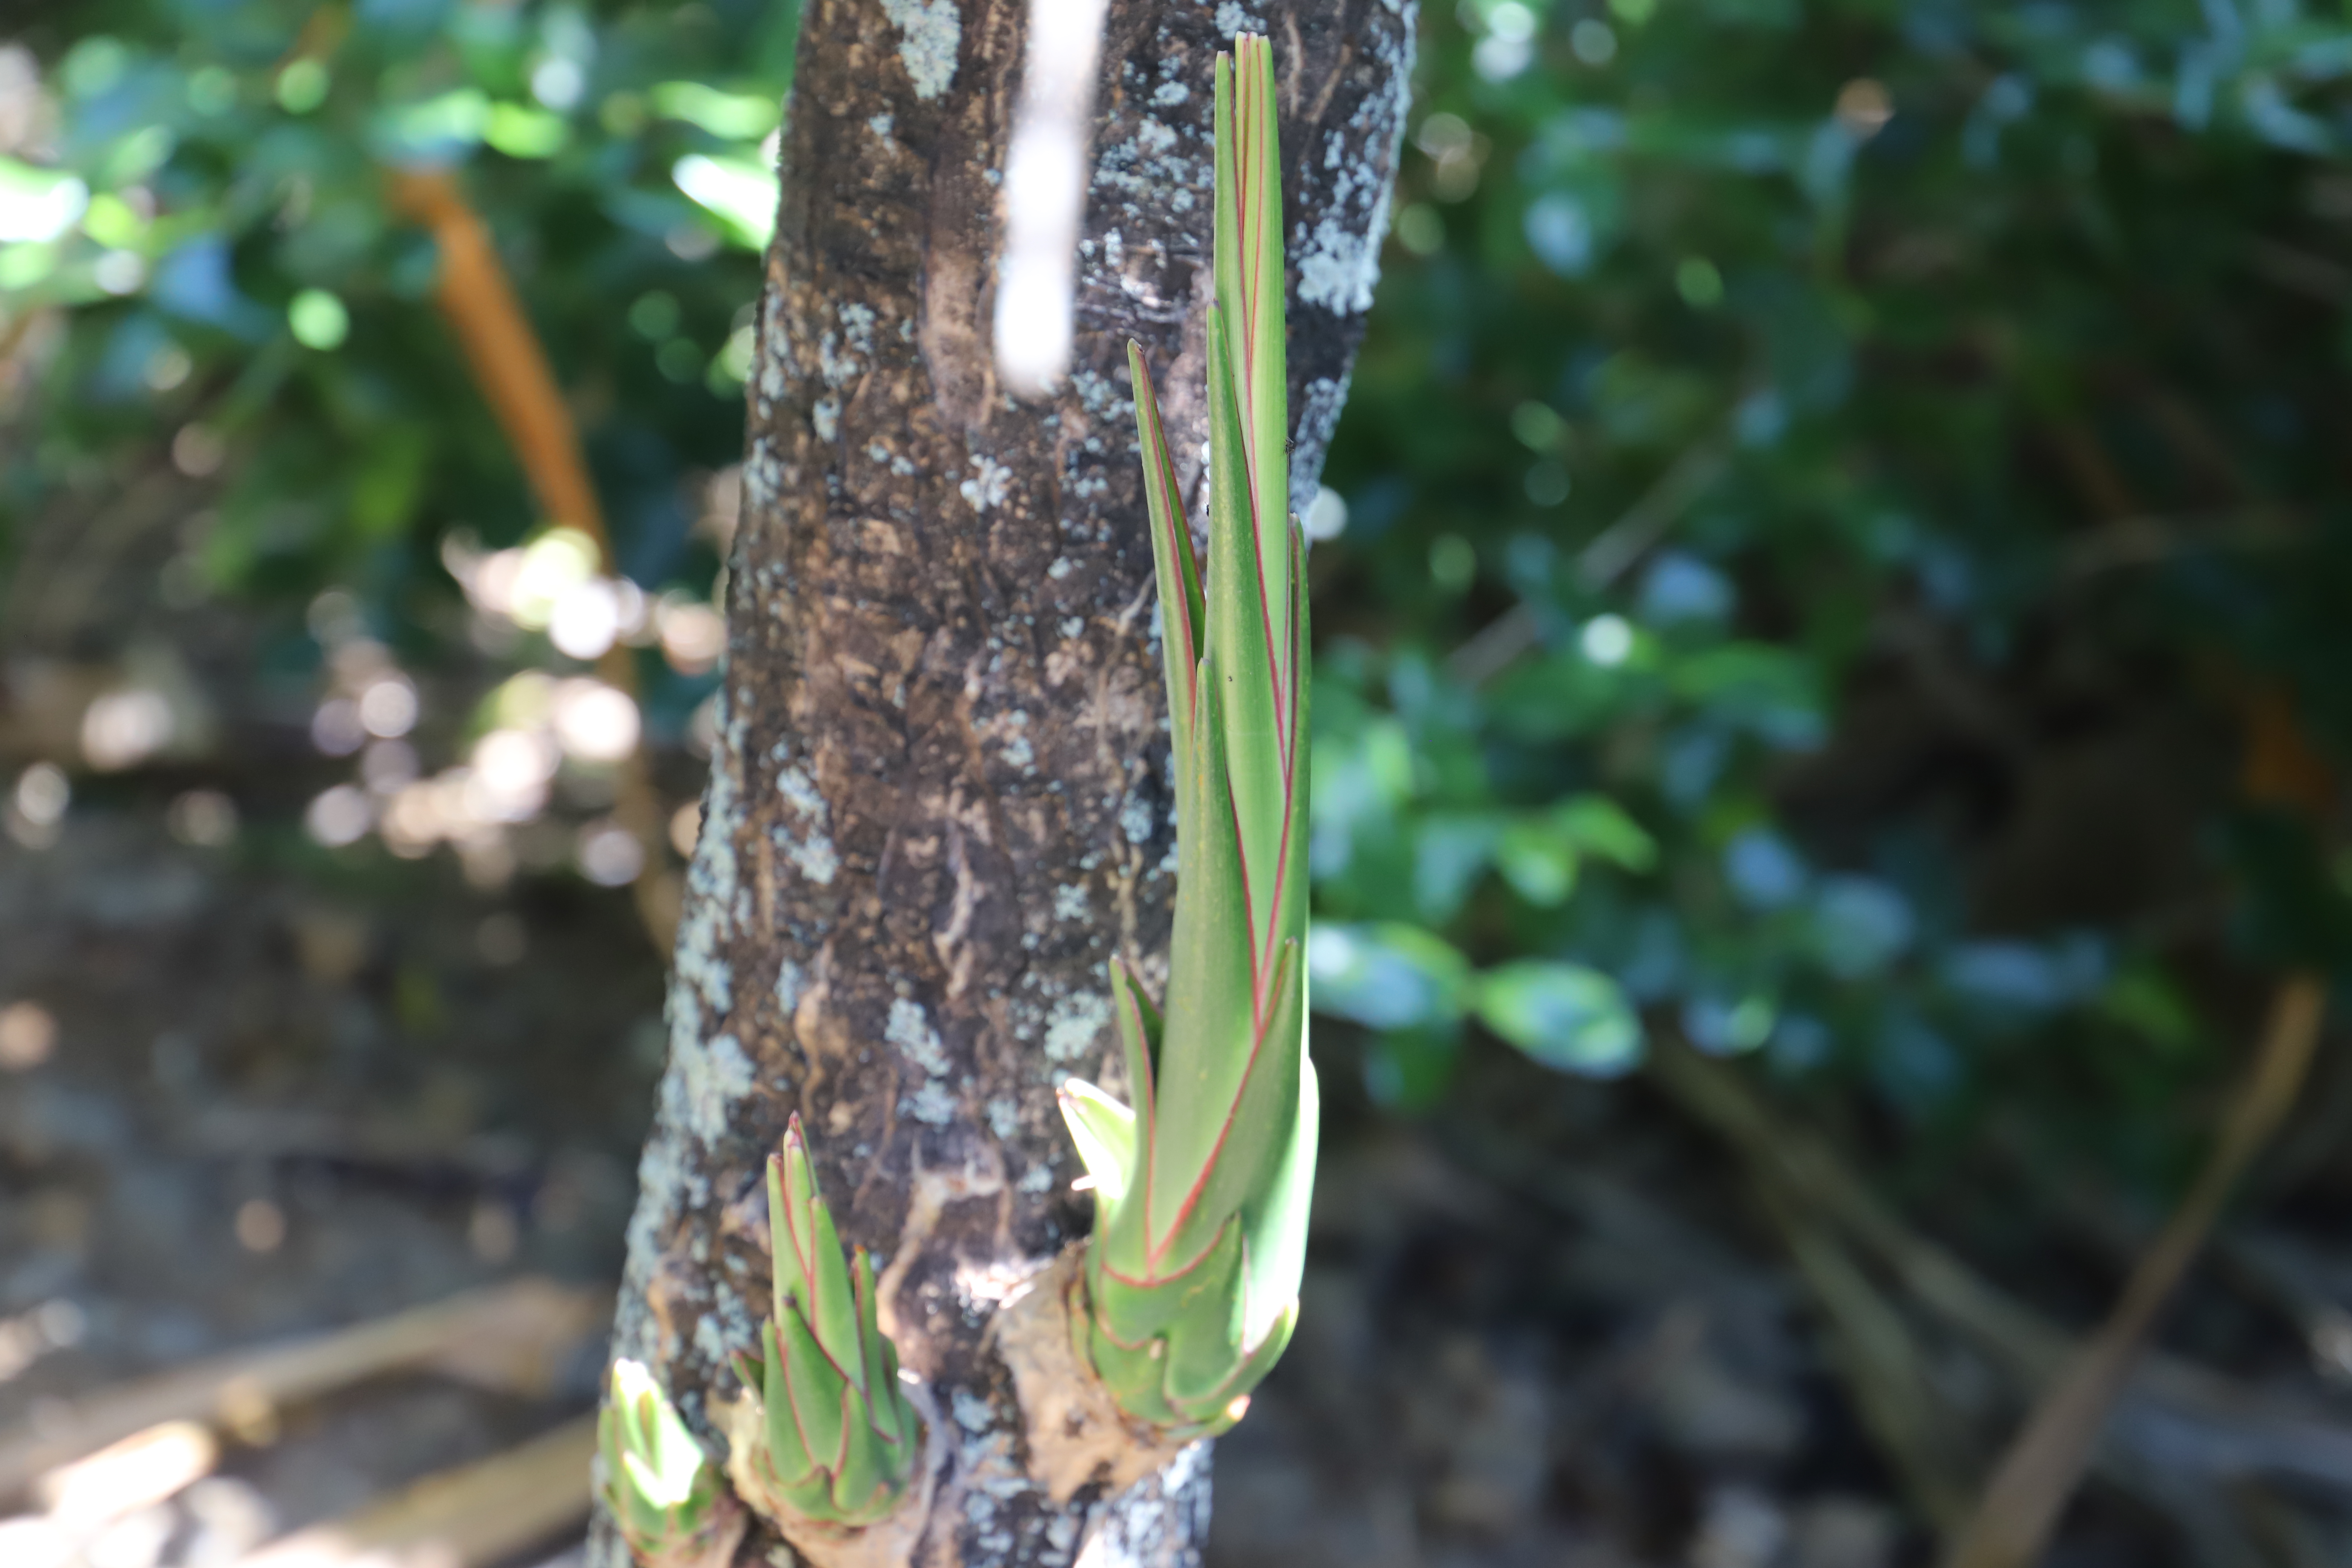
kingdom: Plantae
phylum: Tracheophyta
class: Liliopsida
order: Asparagales
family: Asparagaceae
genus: Dracaena
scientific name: Dracaena concinna
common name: Bois de chandelle
